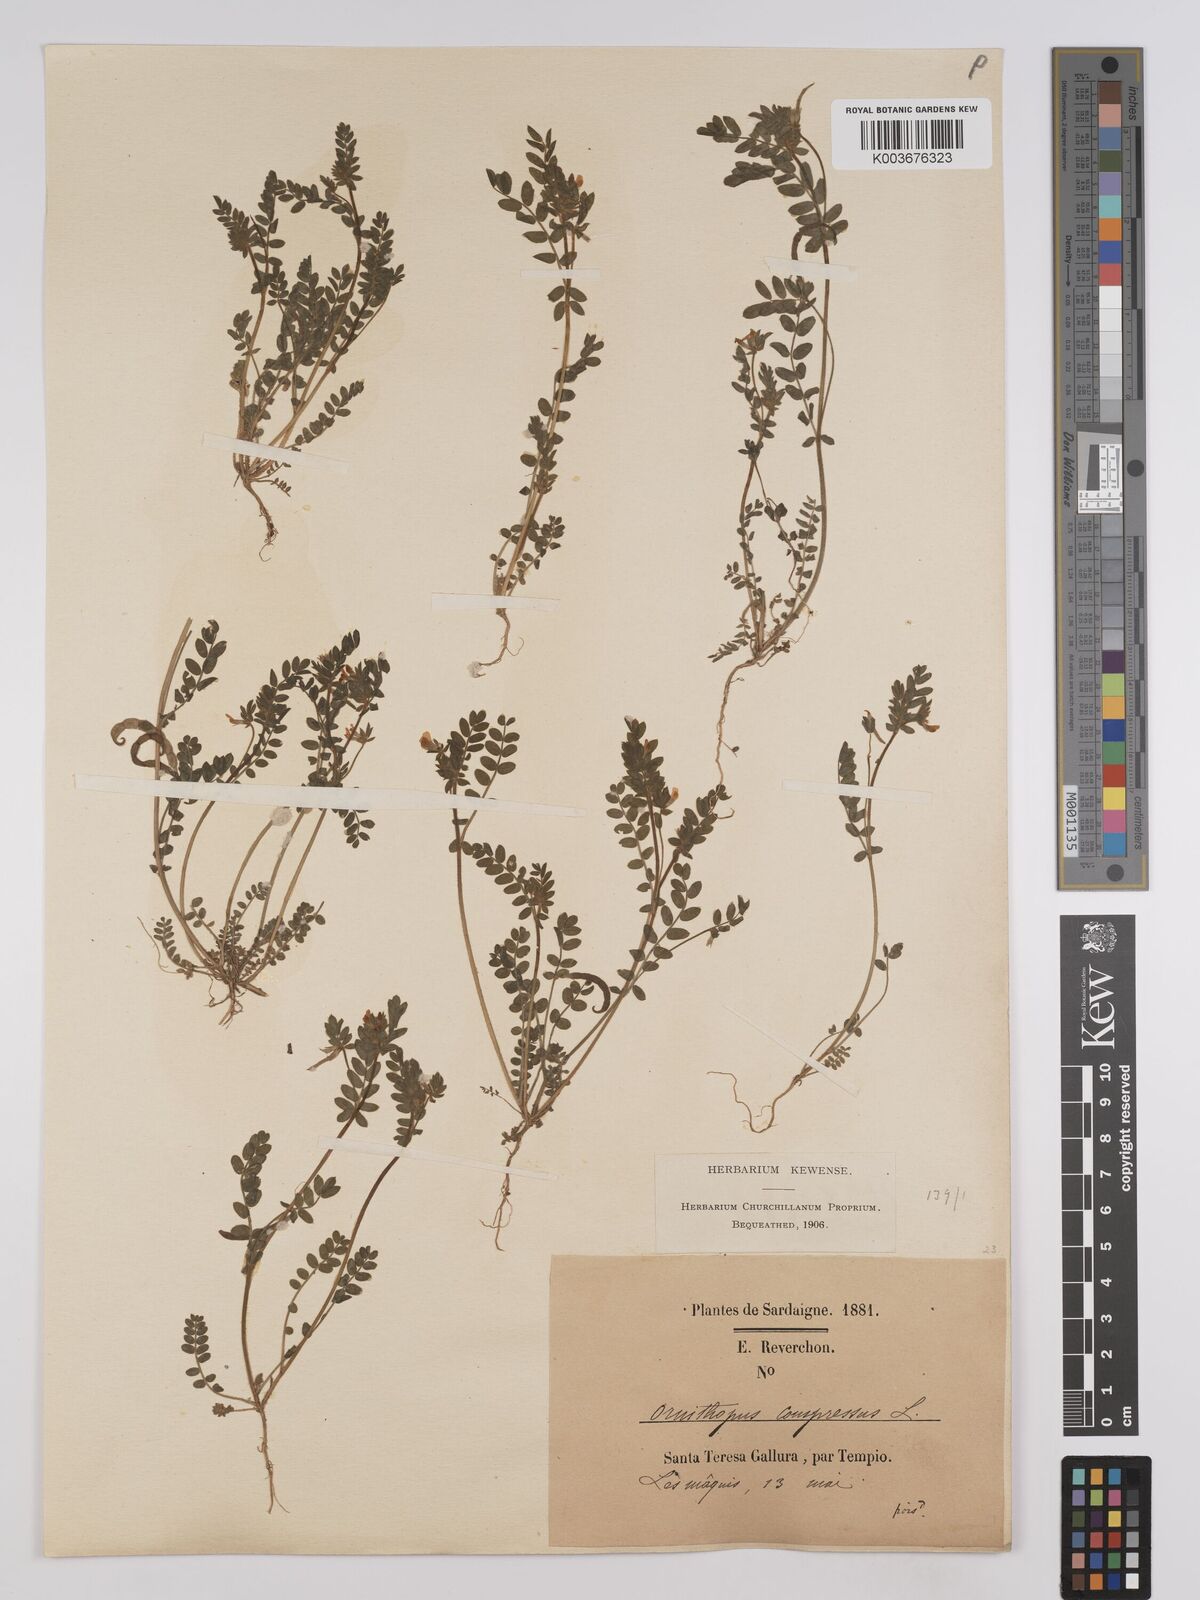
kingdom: Plantae
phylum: Tracheophyta
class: Magnoliopsida
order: Fabales
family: Fabaceae
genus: Ornithopus
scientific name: Ornithopus compressus
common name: Yellow serradella
